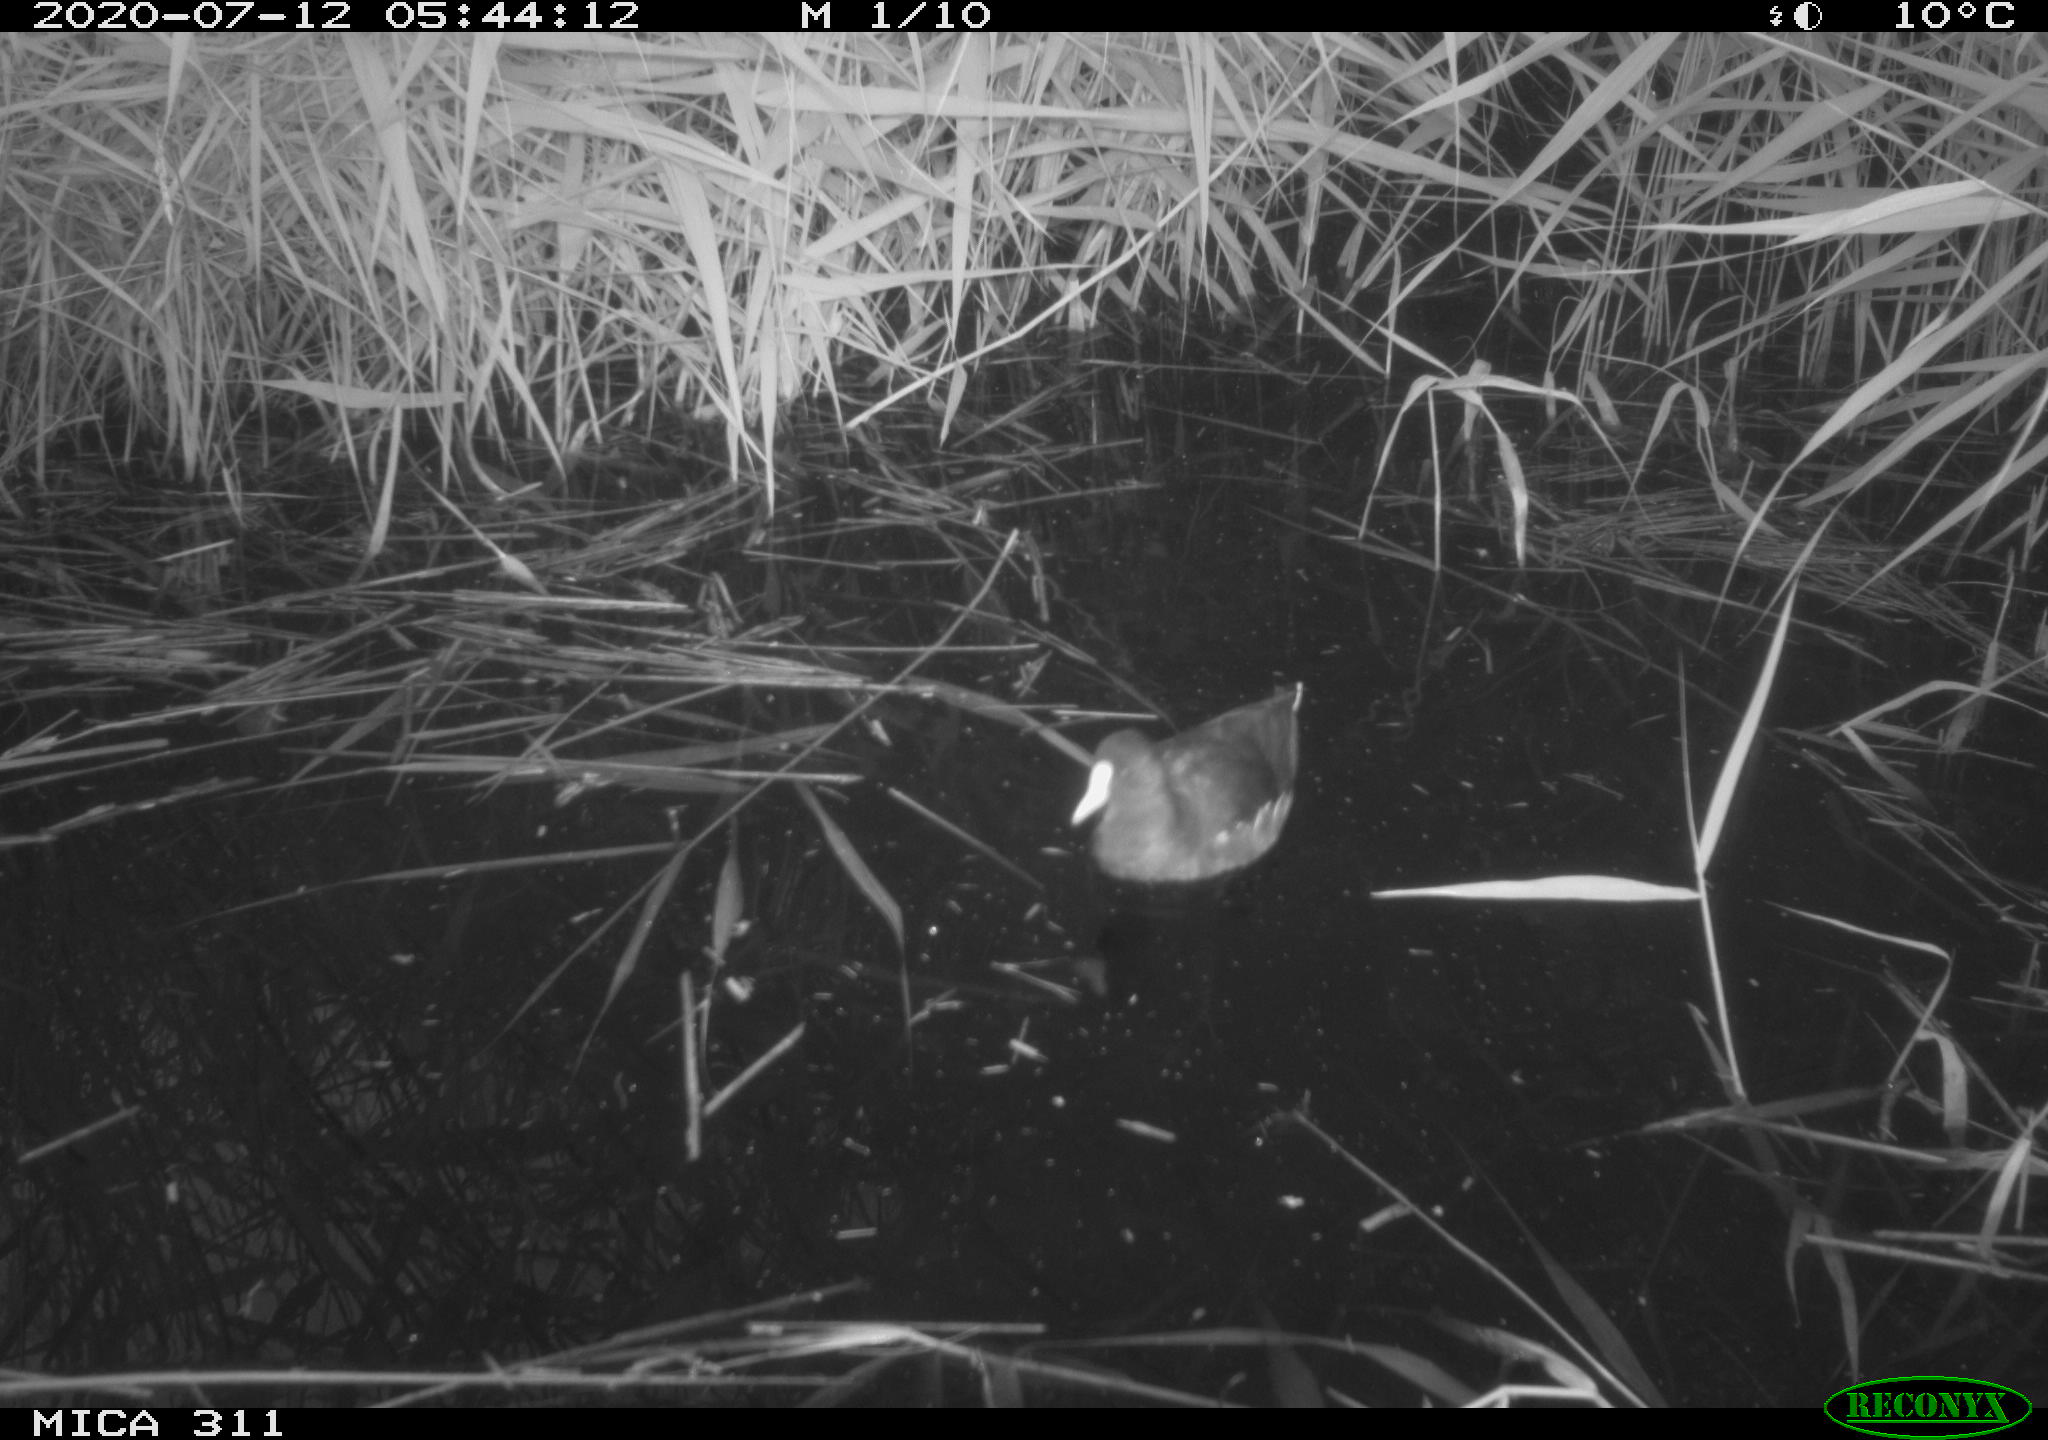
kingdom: Animalia
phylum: Chordata
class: Aves
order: Gruiformes
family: Rallidae
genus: Fulica
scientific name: Fulica atra
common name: Eurasian coot
